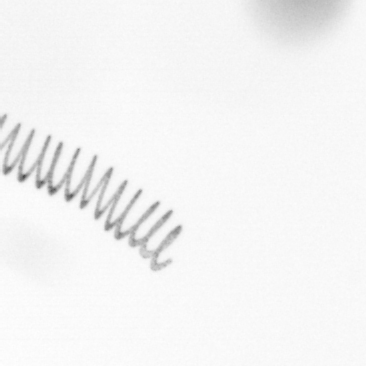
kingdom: Chromista
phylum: Ochrophyta
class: Bacillariophyceae
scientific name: Bacillariophyceae
